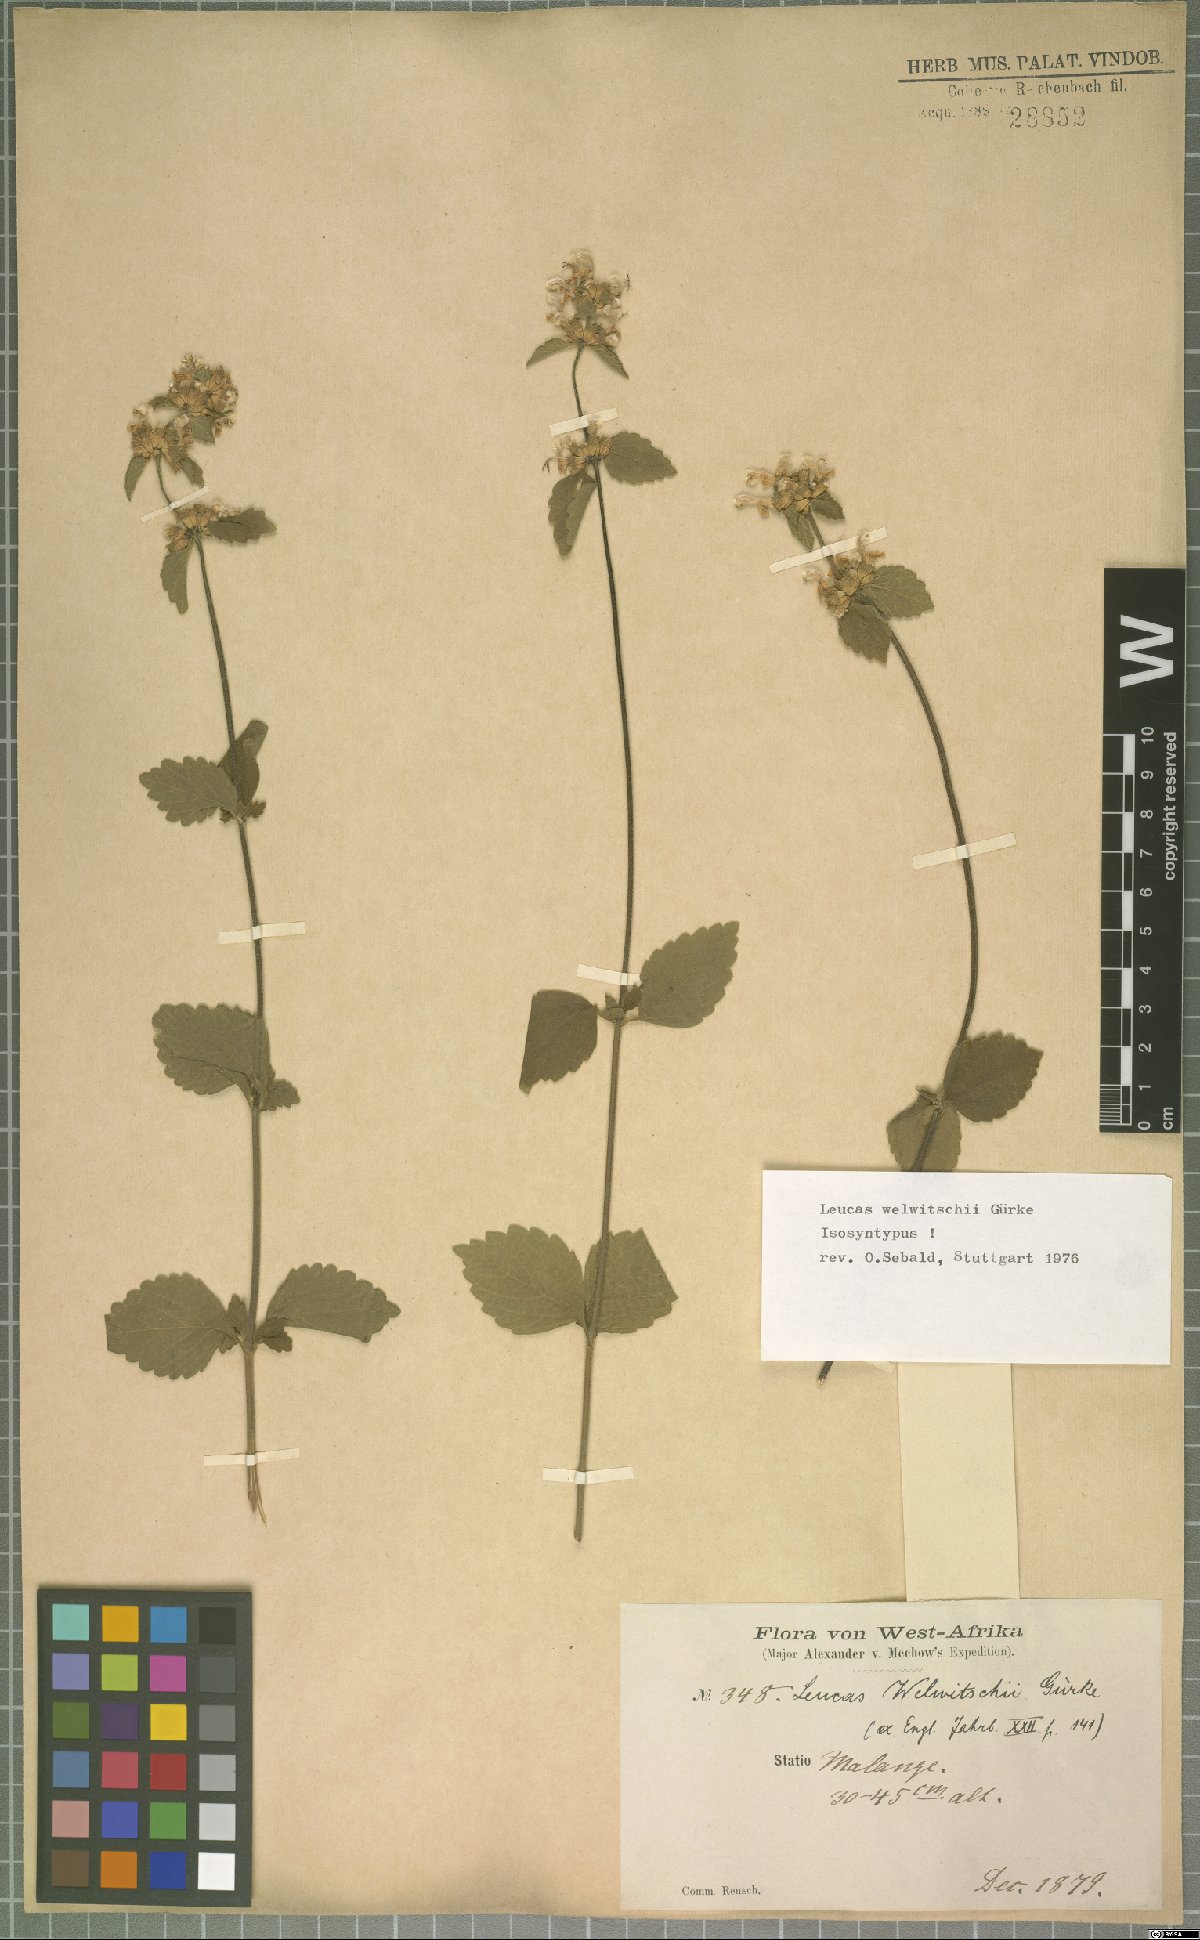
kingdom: Plantae
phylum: Tracheophyta
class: Magnoliopsida
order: Lamiales
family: Lamiaceae
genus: Leucas
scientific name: Leucas welwitschii
